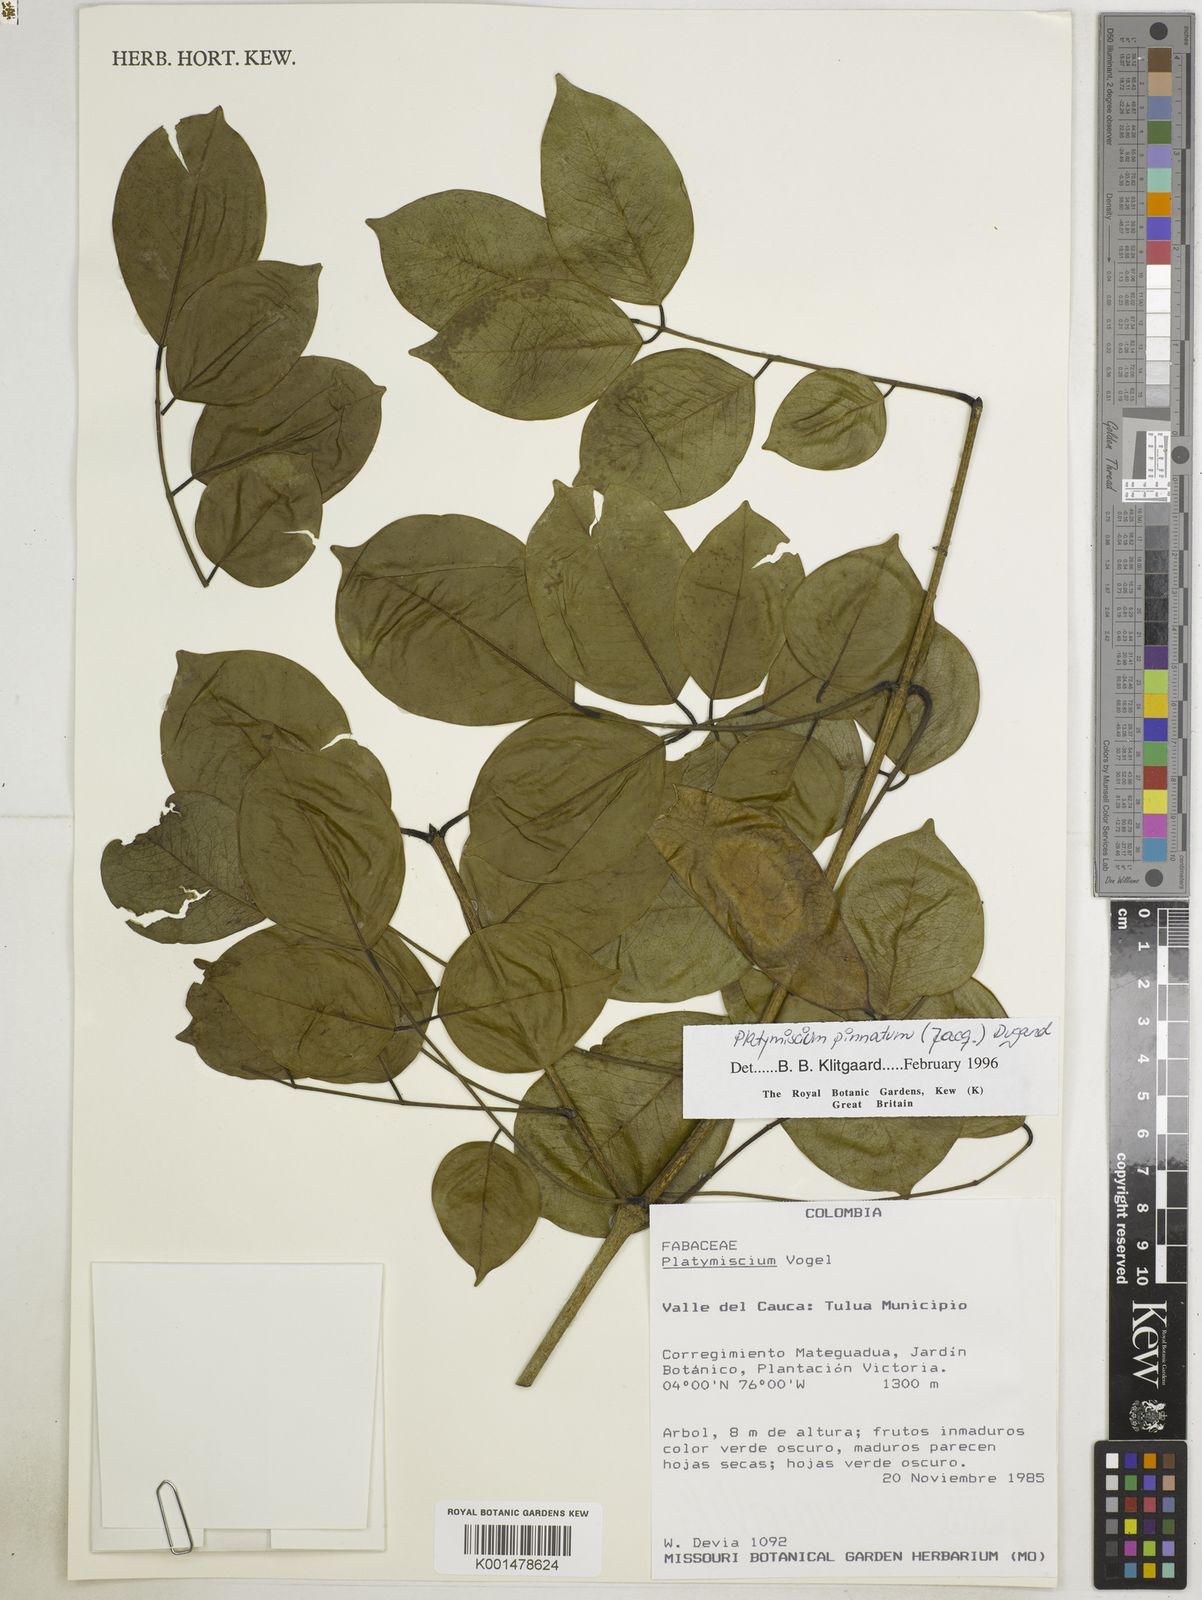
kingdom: Plantae
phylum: Tracheophyta
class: Magnoliopsida
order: Fabales
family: Fabaceae
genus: Platymiscium
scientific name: Platymiscium pinnatum
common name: Panama redwood
